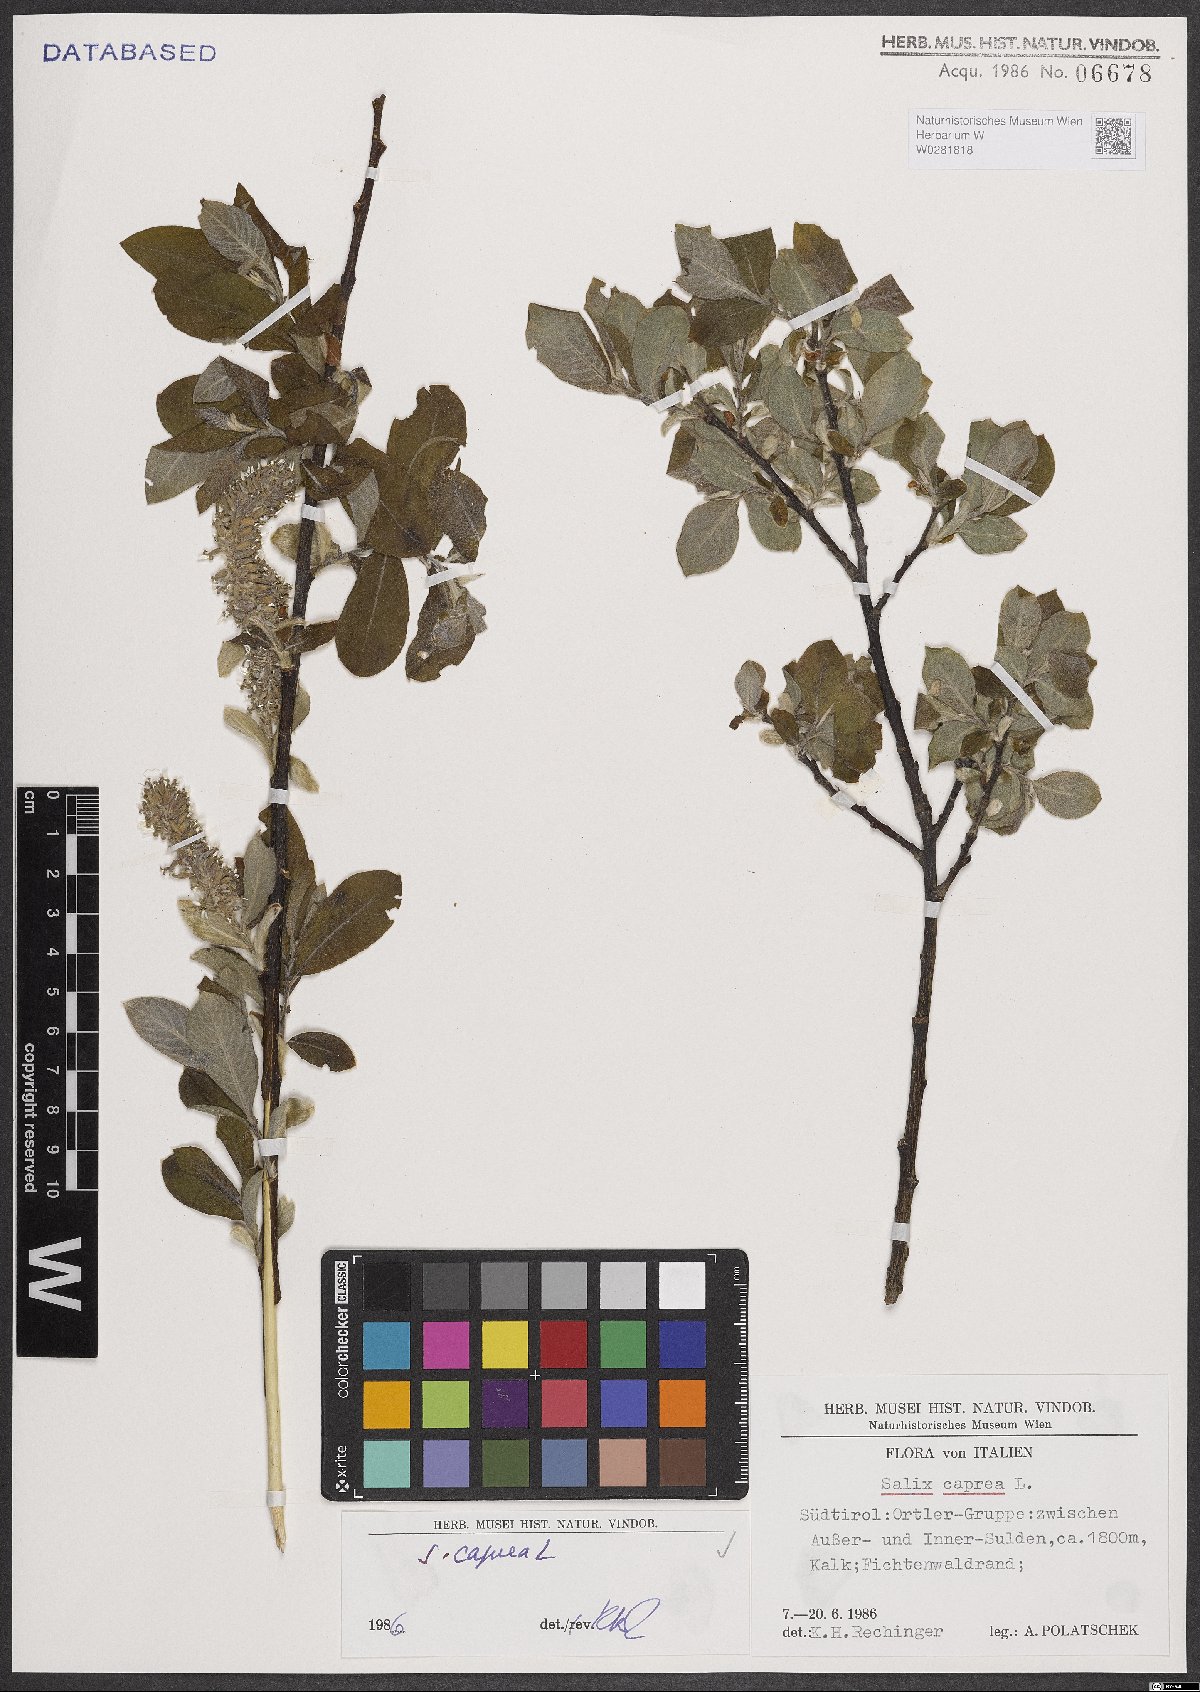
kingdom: Plantae
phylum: Tracheophyta
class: Magnoliopsida
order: Malpighiales
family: Salicaceae
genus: Salix
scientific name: Salix caprea
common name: Goat willow
